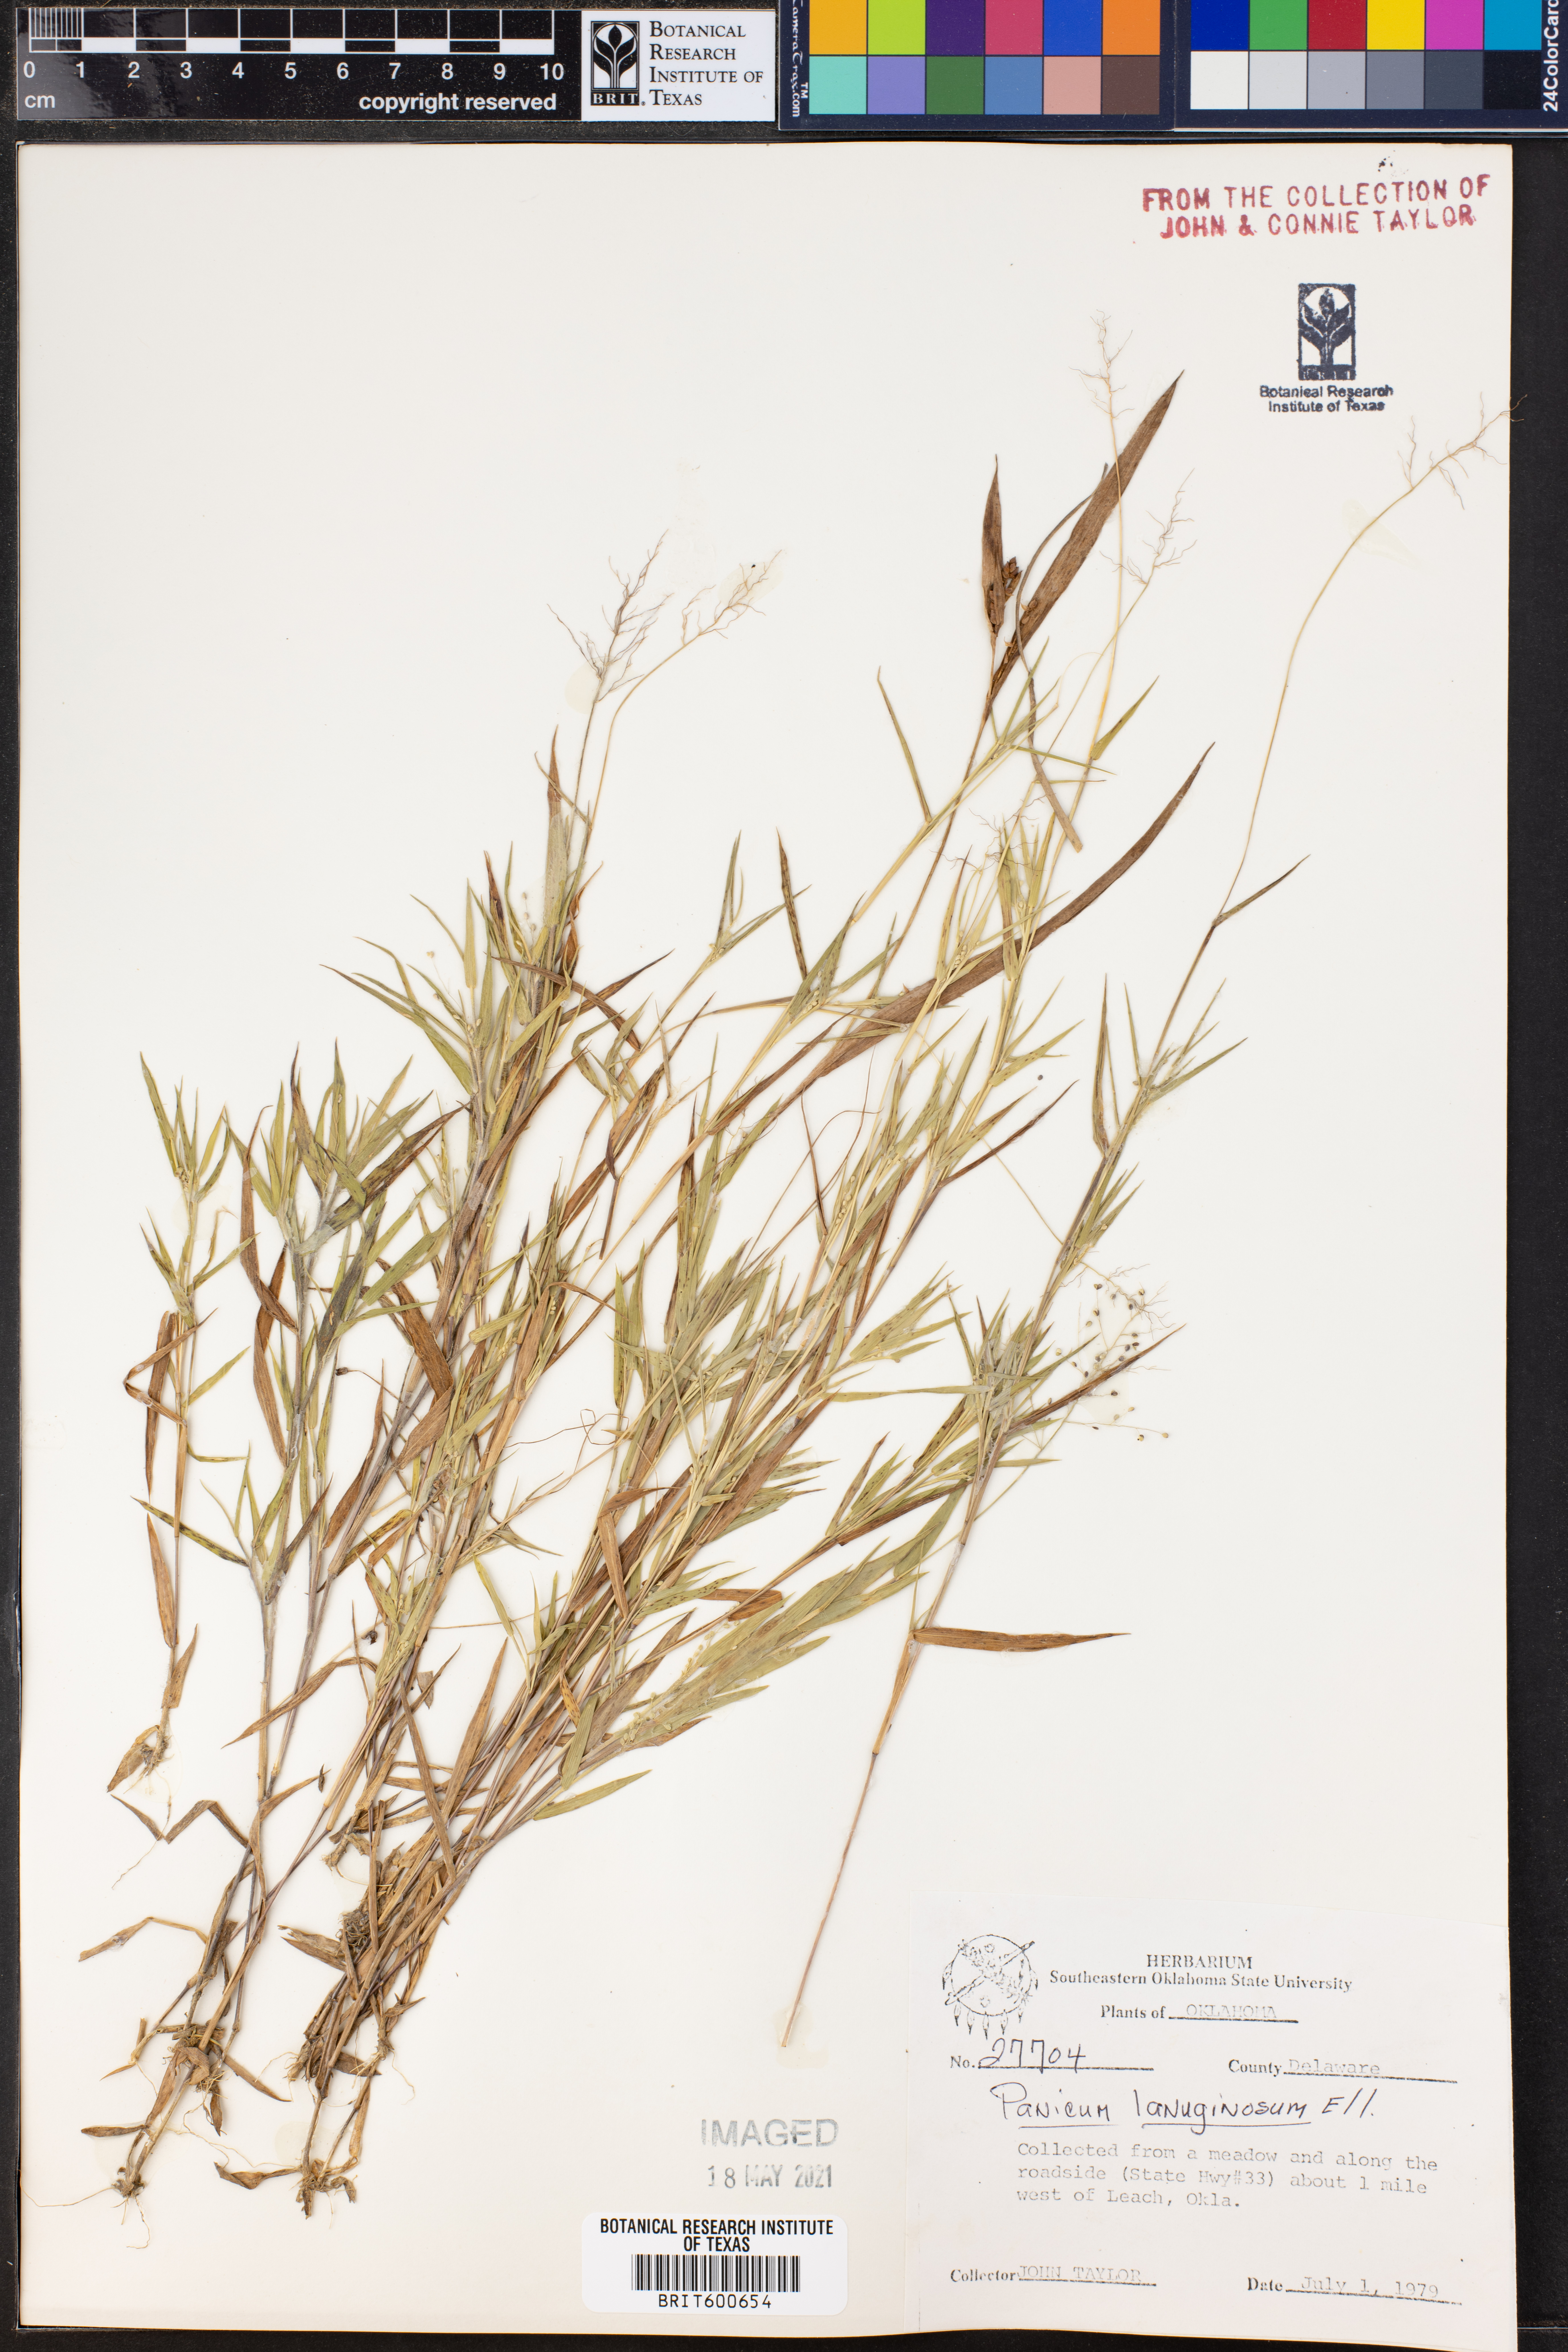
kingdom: Plantae
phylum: Tracheophyta
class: Liliopsida
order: Poales
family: Poaceae
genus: Dichanthelium
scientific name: Dichanthelium lanuginosum
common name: Woolly panicgrass
